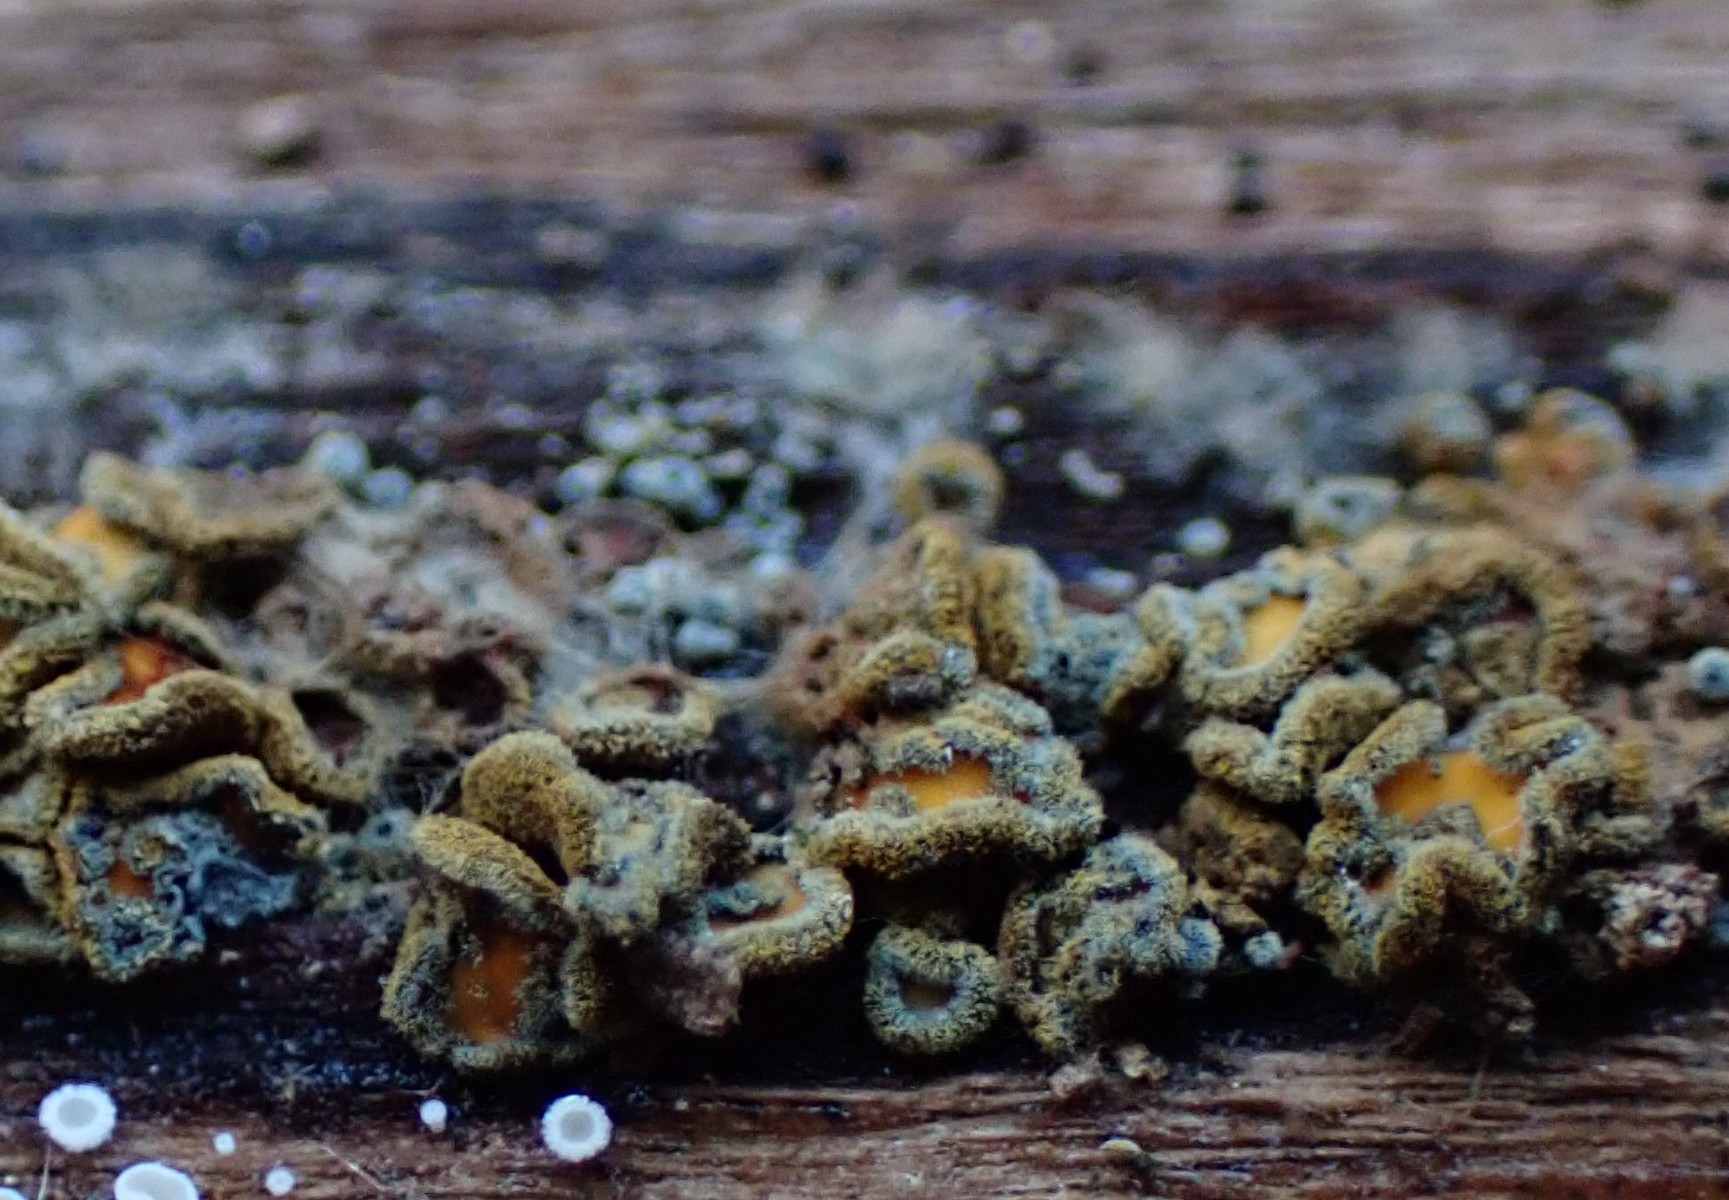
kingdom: Fungi
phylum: Ascomycota
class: Leotiomycetes
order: Helotiales
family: Lachnaceae
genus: Neodasyscypha
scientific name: Neodasyscypha cerina
